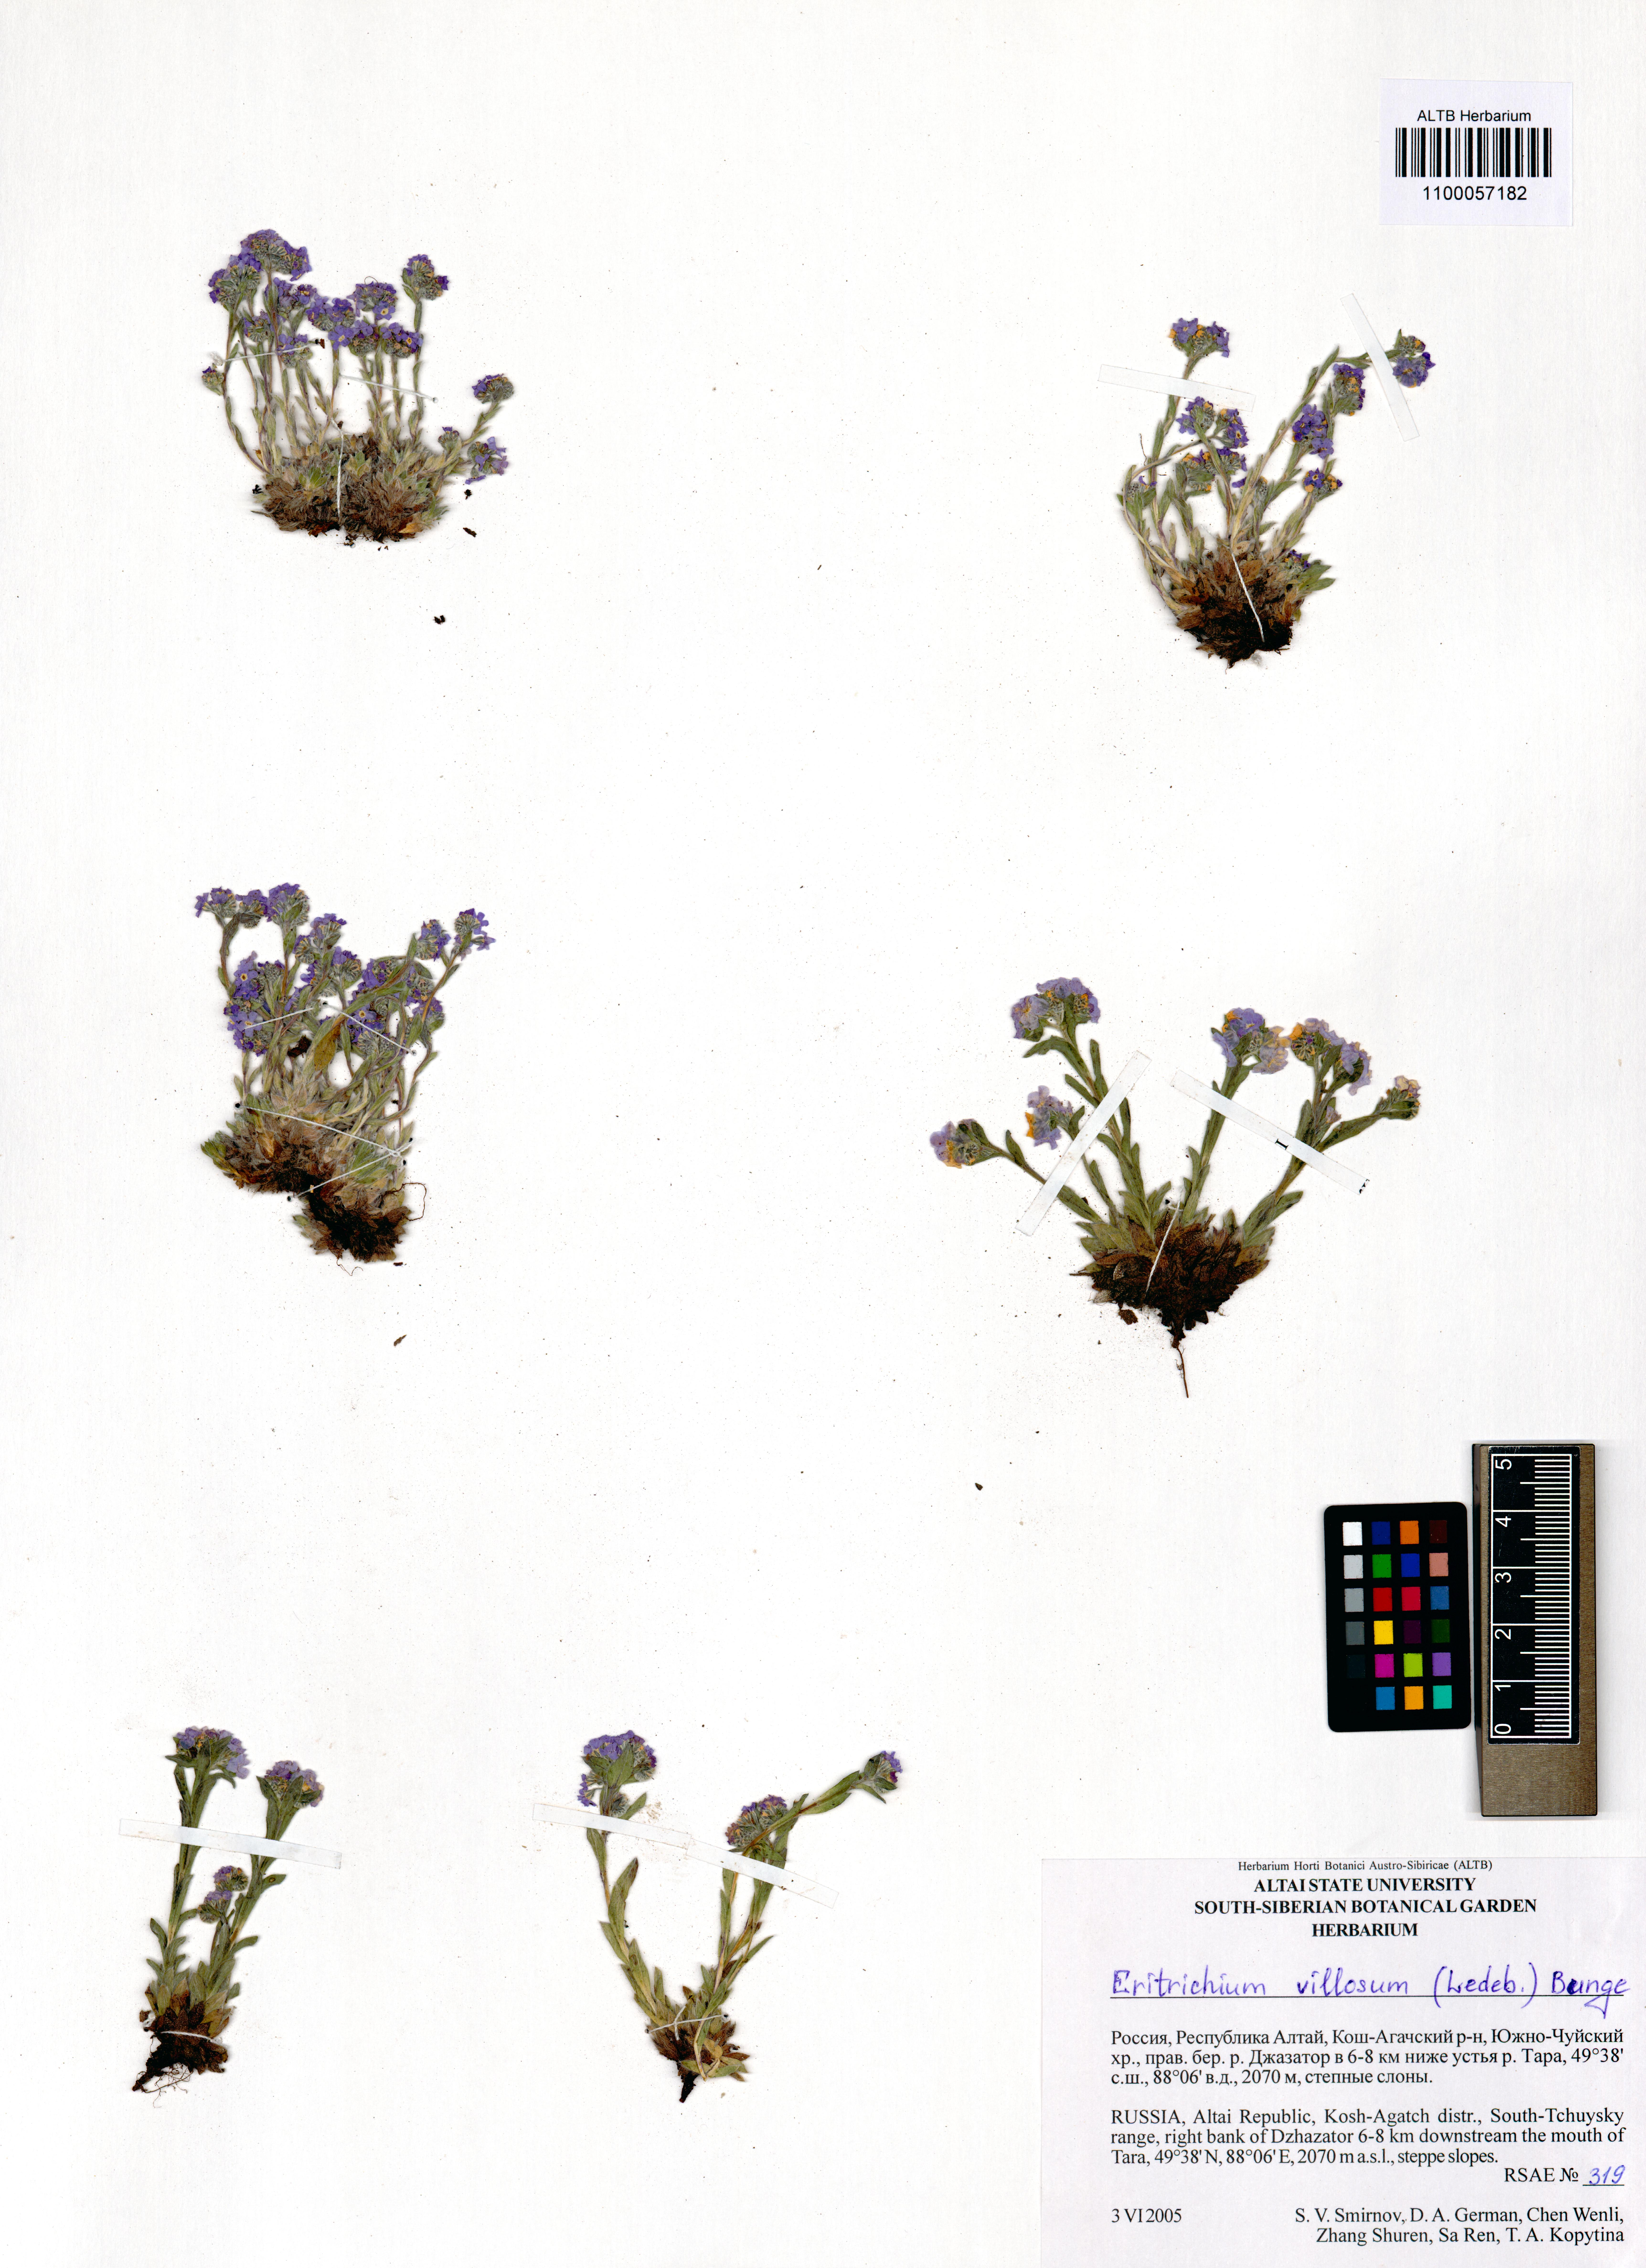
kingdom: Plantae
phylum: Tracheophyta
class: Magnoliopsida
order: Boraginales
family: Boraginaceae
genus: Eritrichium
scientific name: Eritrichium villosum
